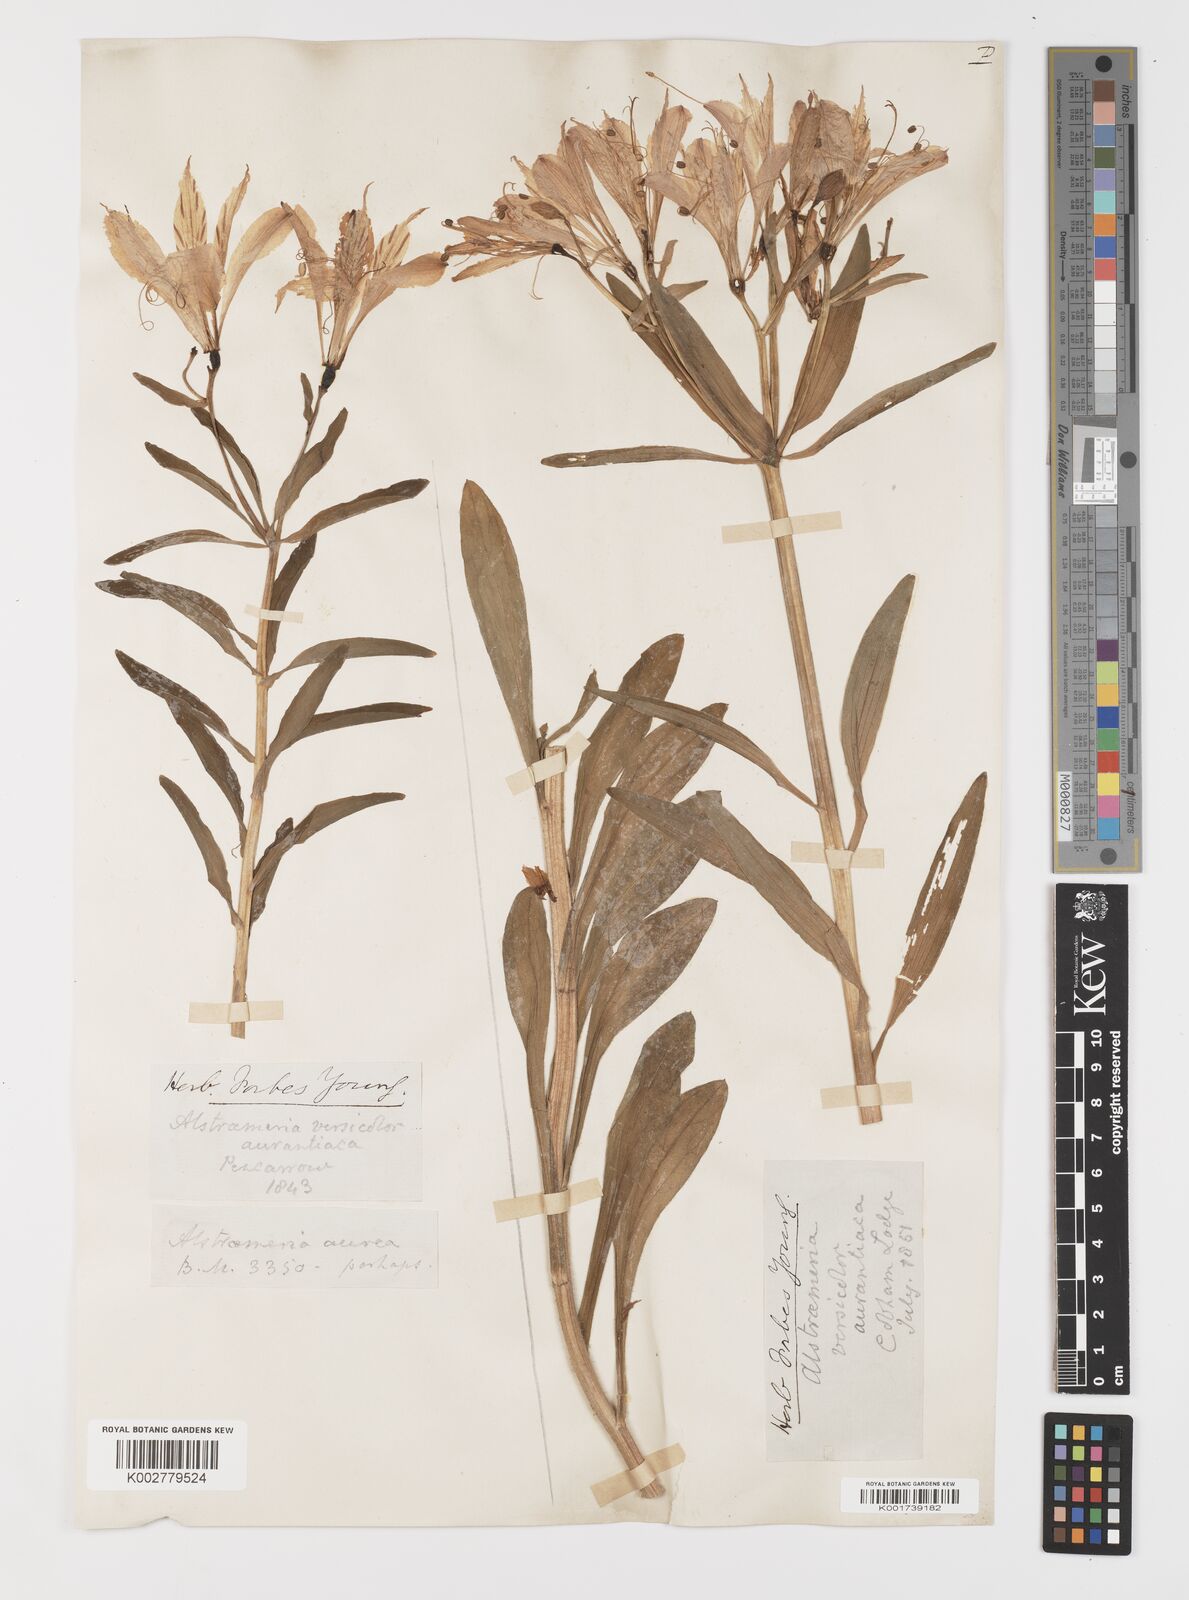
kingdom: Plantae
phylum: Tracheophyta
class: Liliopsida
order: Liliales
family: Alstroemeriaceae
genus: Alstroemeria
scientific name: Alstroemeria aurea
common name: Peruvian lily
